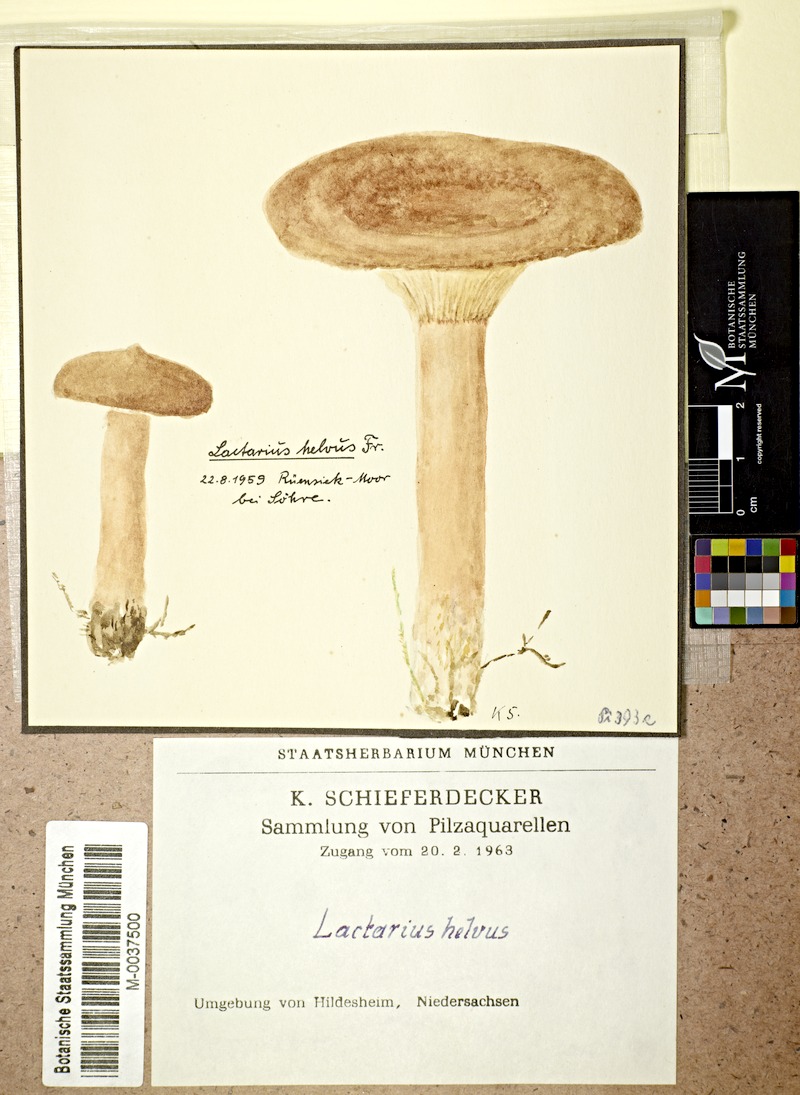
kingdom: Fungi
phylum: Basidiomycota
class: Agaricomycetes
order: Russulales
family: Russulaceae
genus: Lactarius
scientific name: Lactarius helvus
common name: Fenugreek milkcap
